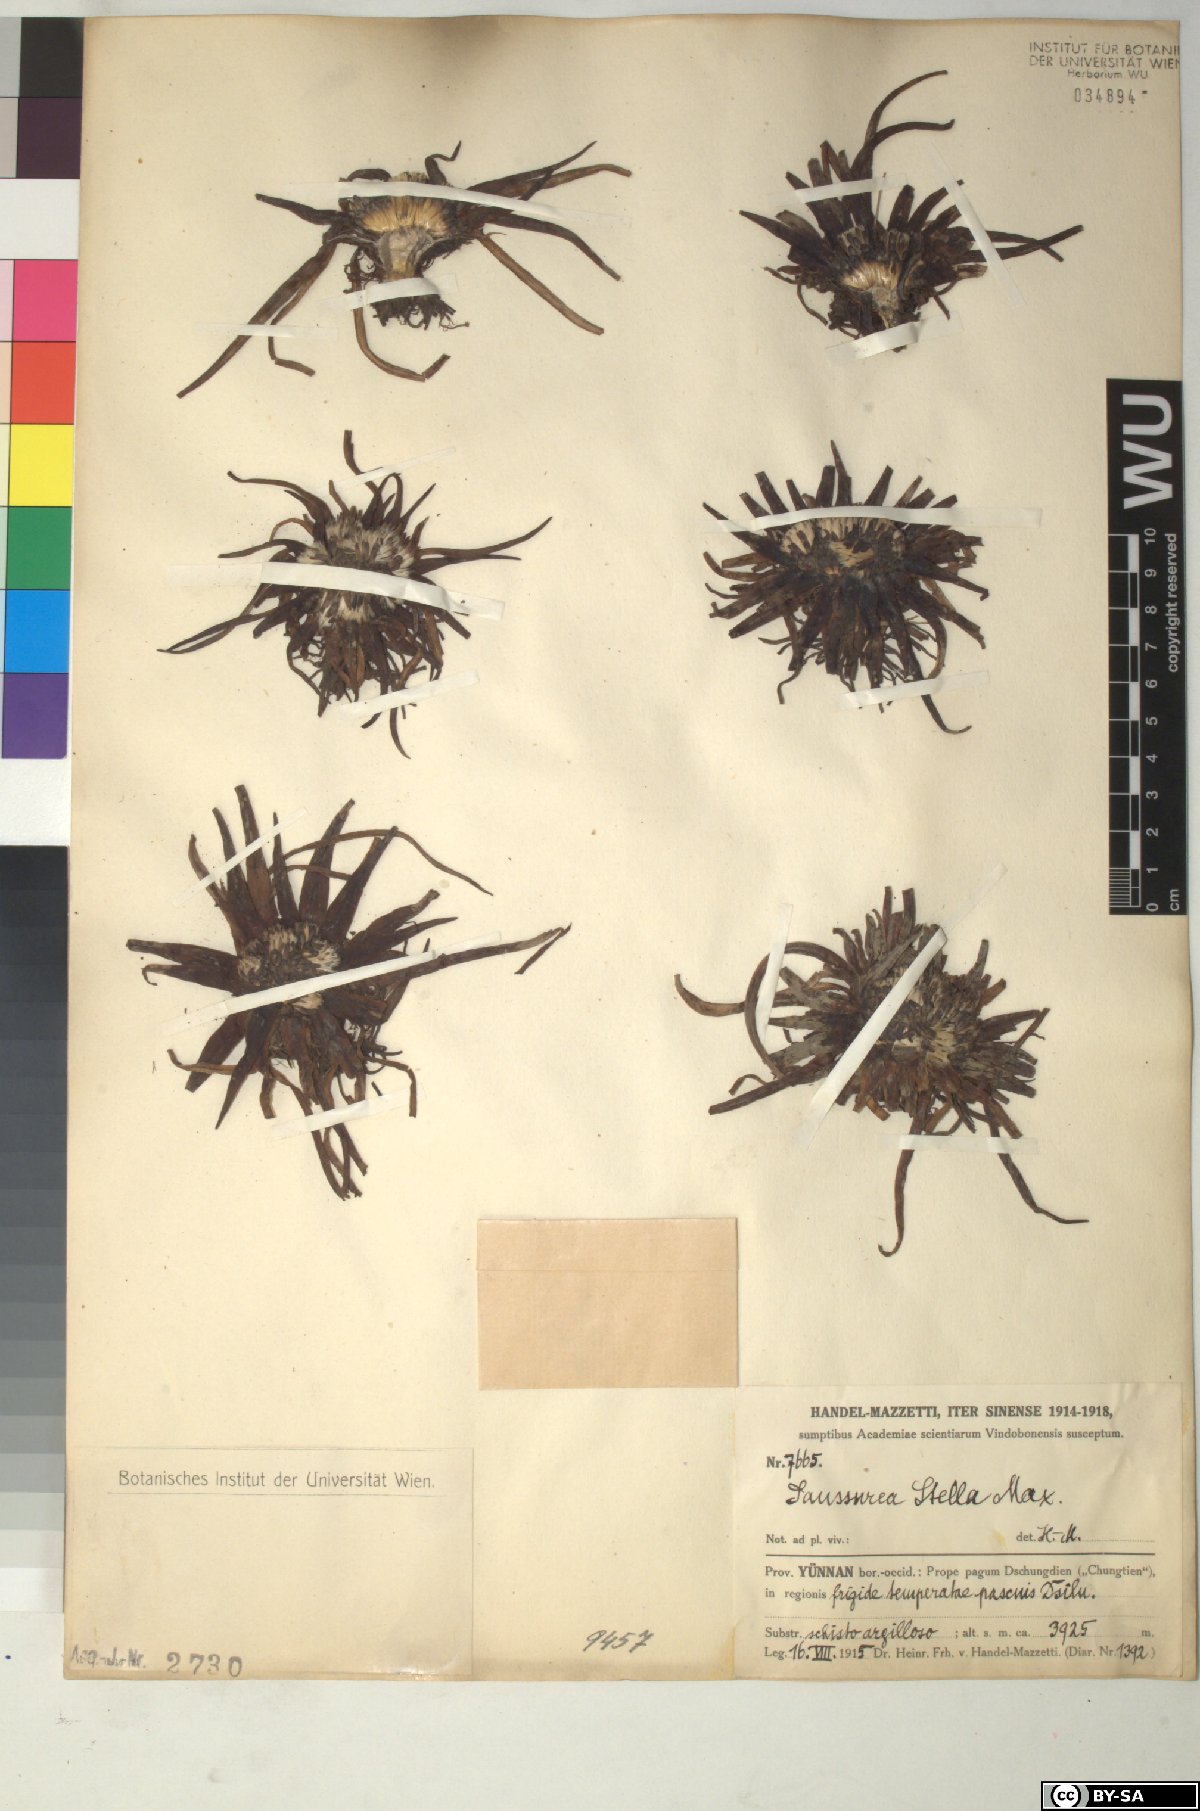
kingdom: Plantae
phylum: Tracheophyta
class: Magnoliopsida
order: Asterales
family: Asteraceae
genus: Saussurea
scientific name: Saussurea stella
